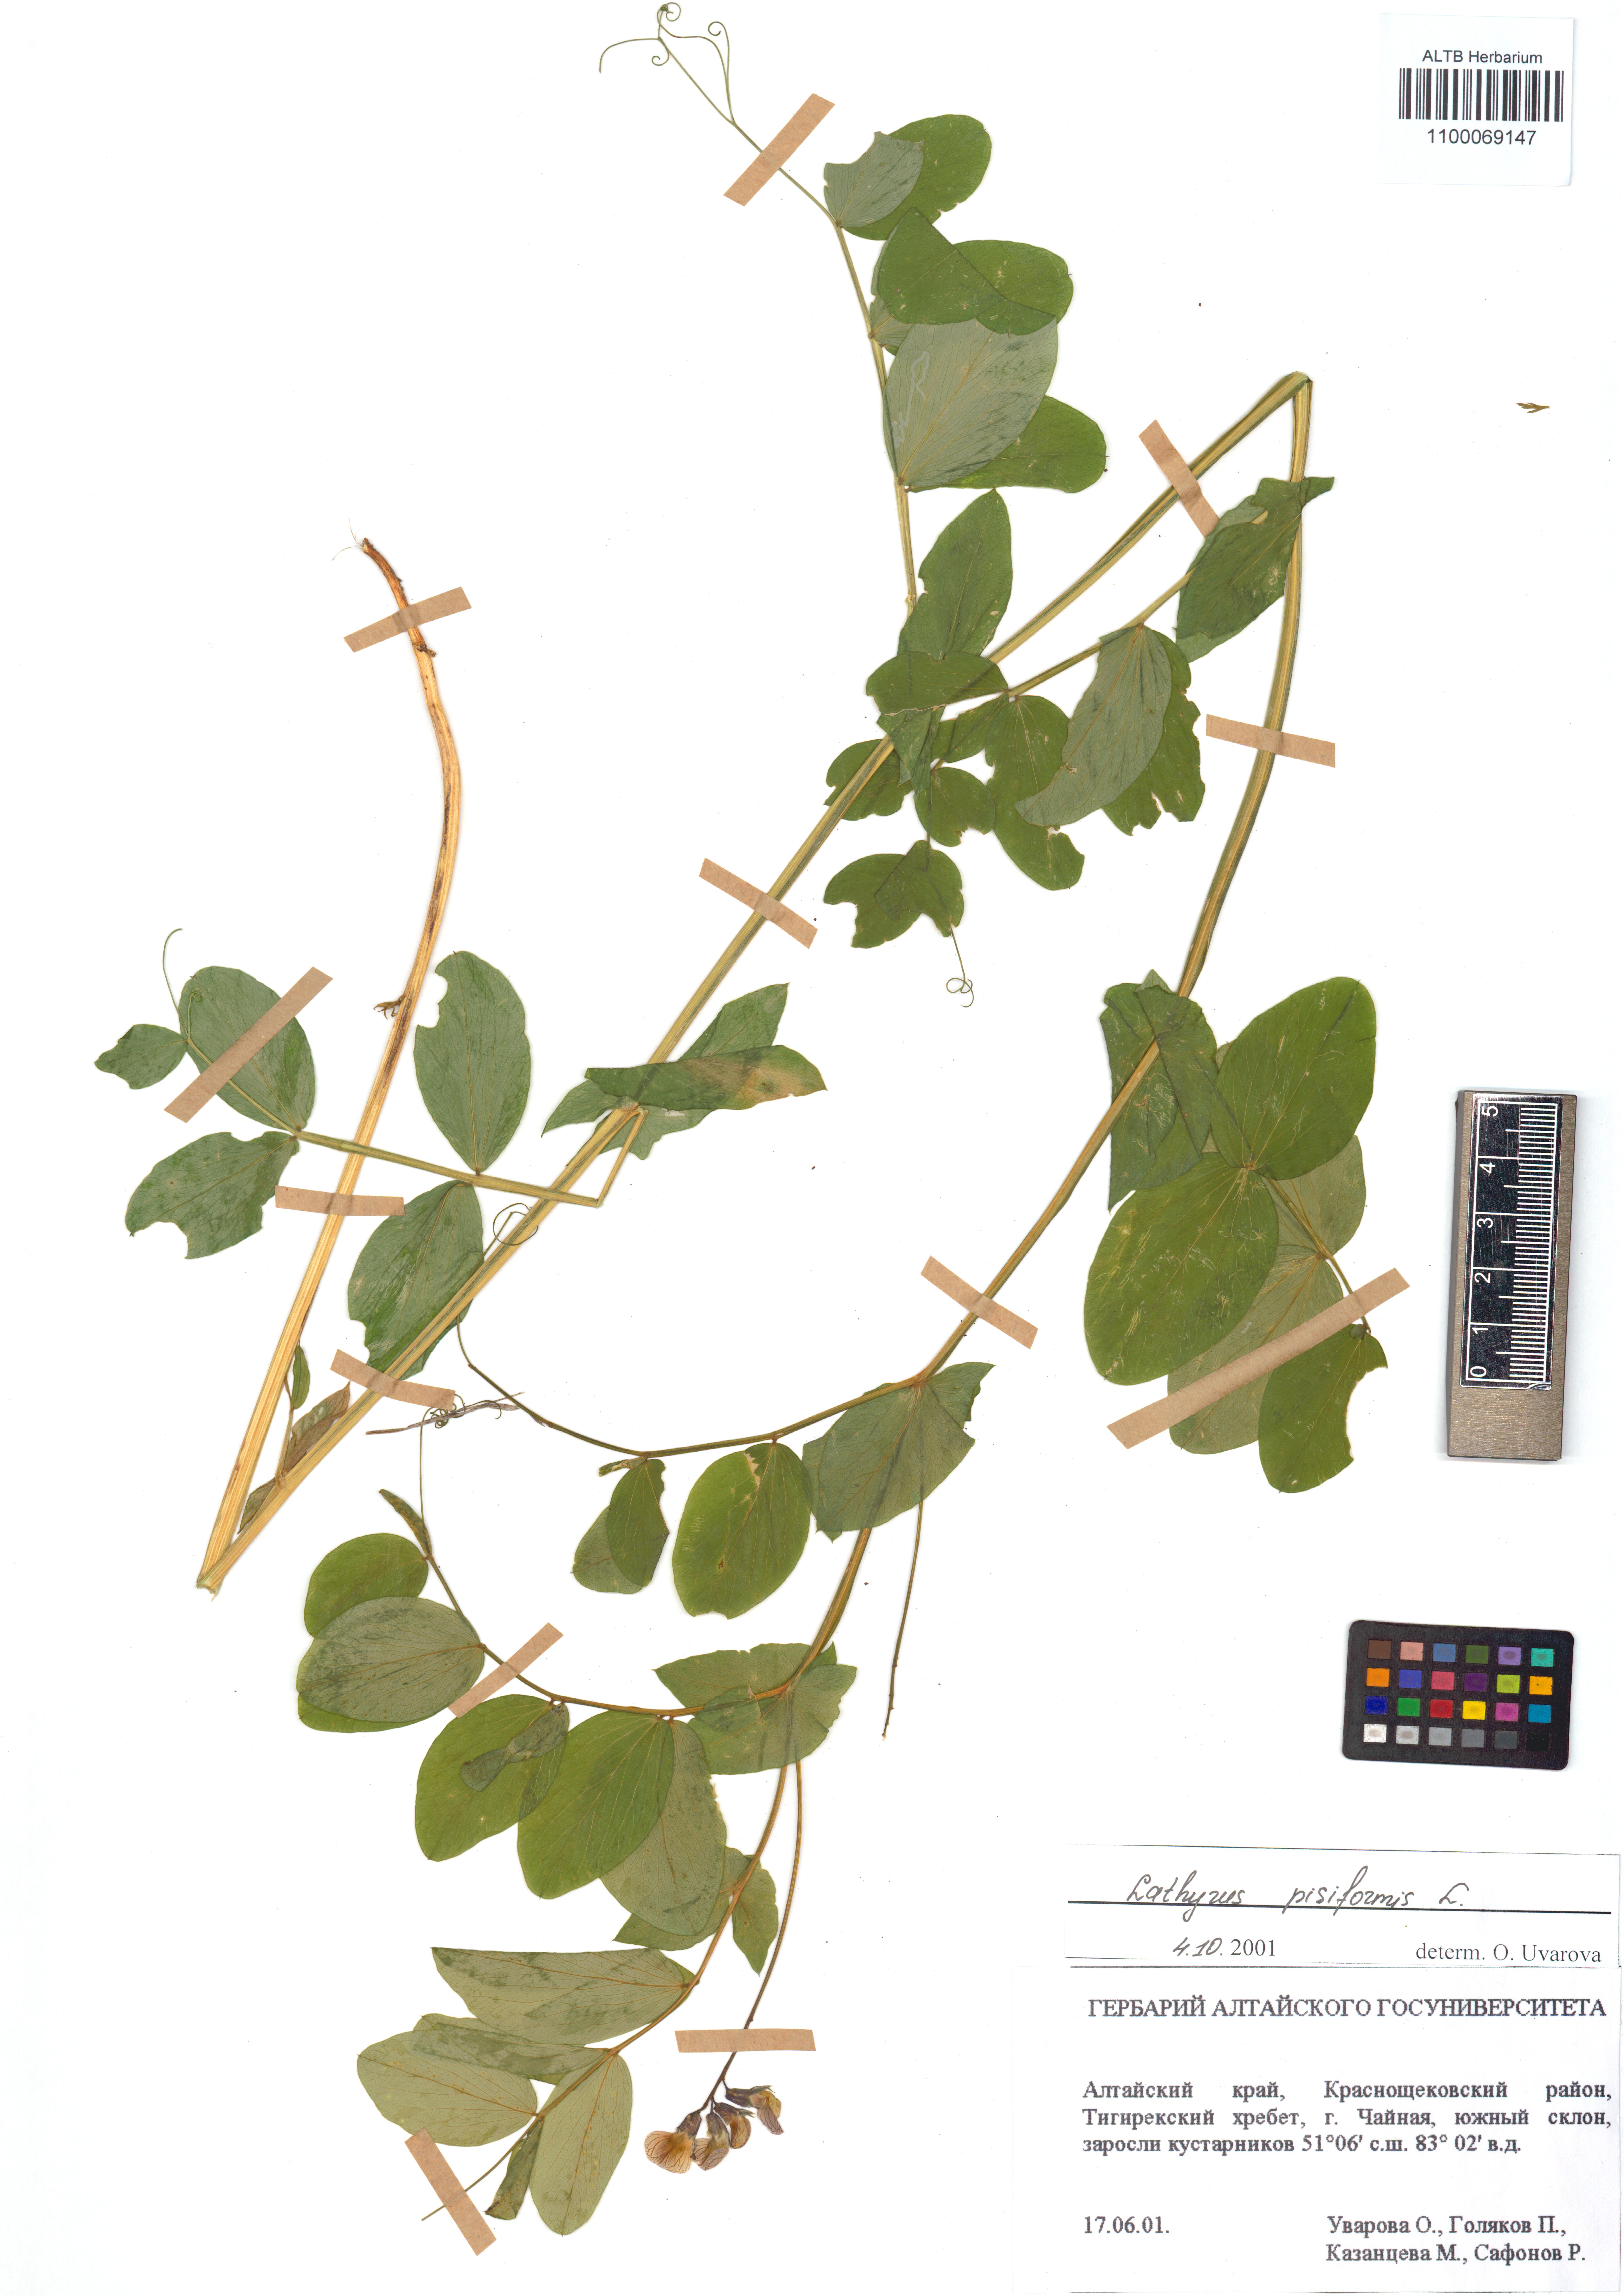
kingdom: Plantae
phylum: Tracheophyta
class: Magnoliopsida
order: Fabales
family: Fabaceae
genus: Lathyrus
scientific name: Lathyrus pisiformis
